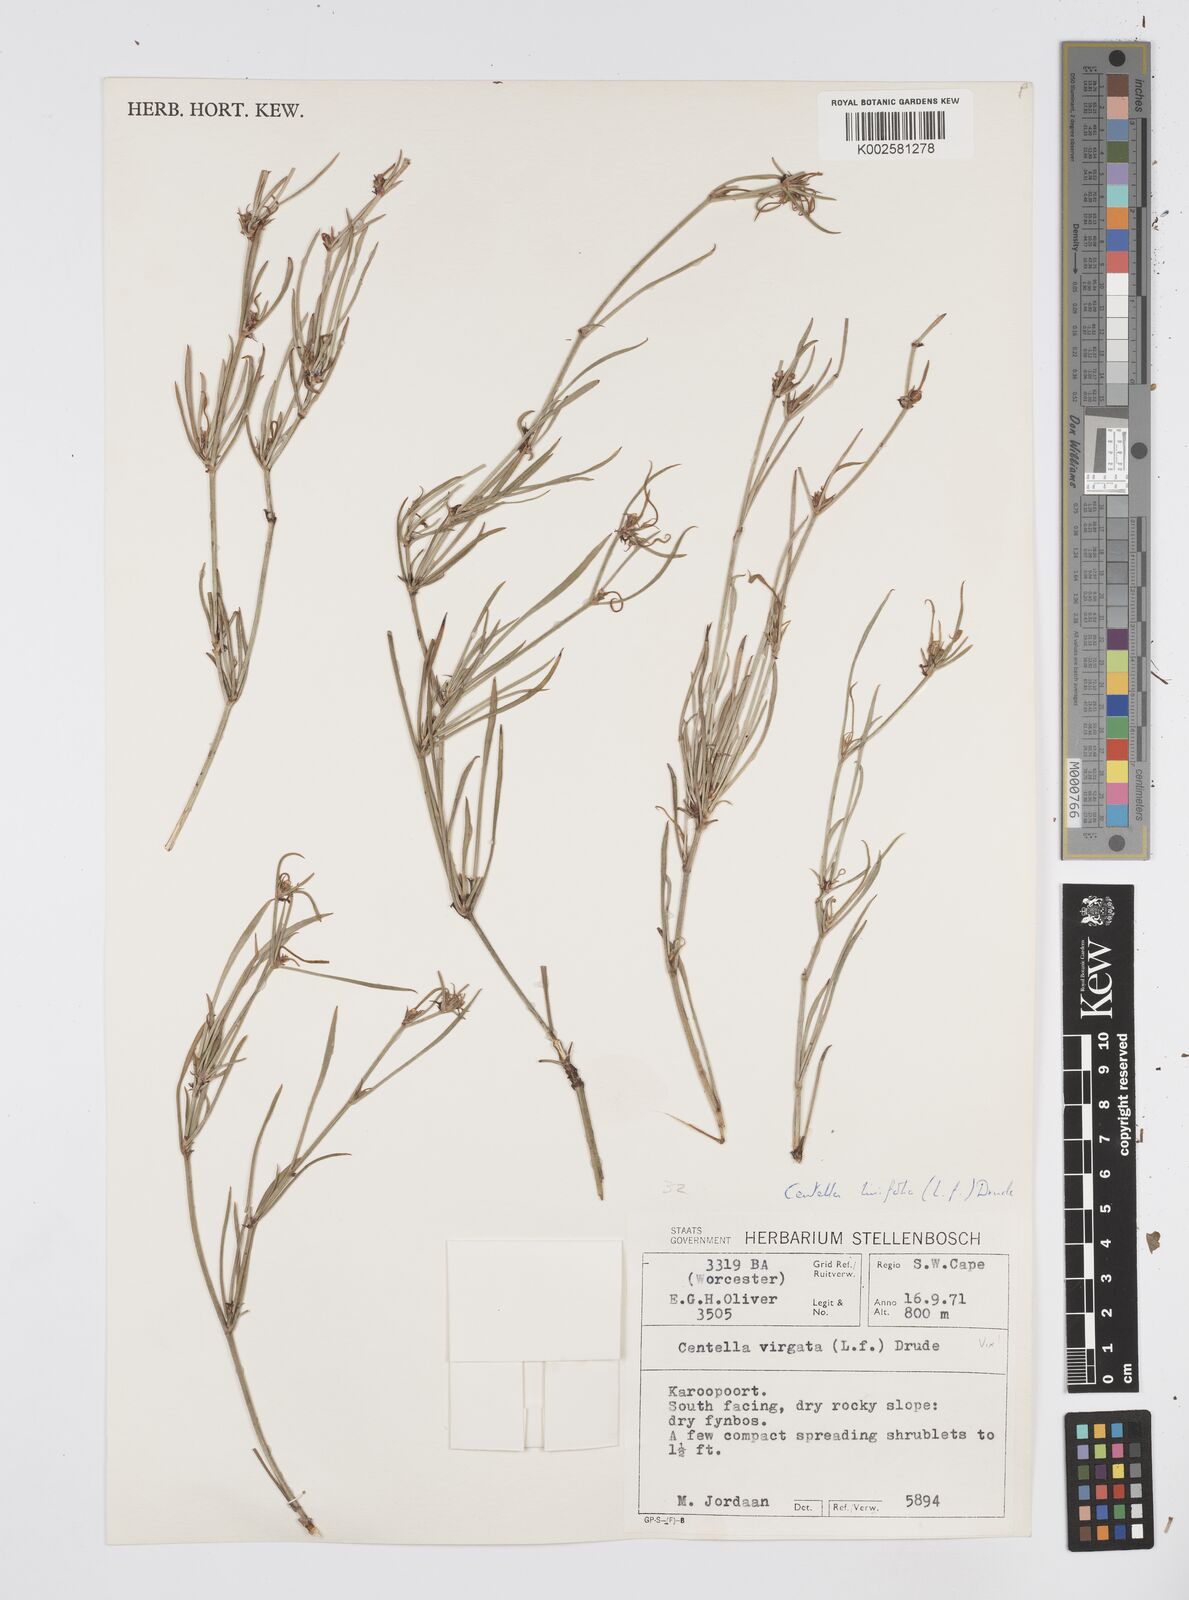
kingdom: Plantae
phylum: Tracheophyta
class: Magnoliopsida
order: Apiales
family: Apiaceae
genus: Centella
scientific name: Centella linifolia
